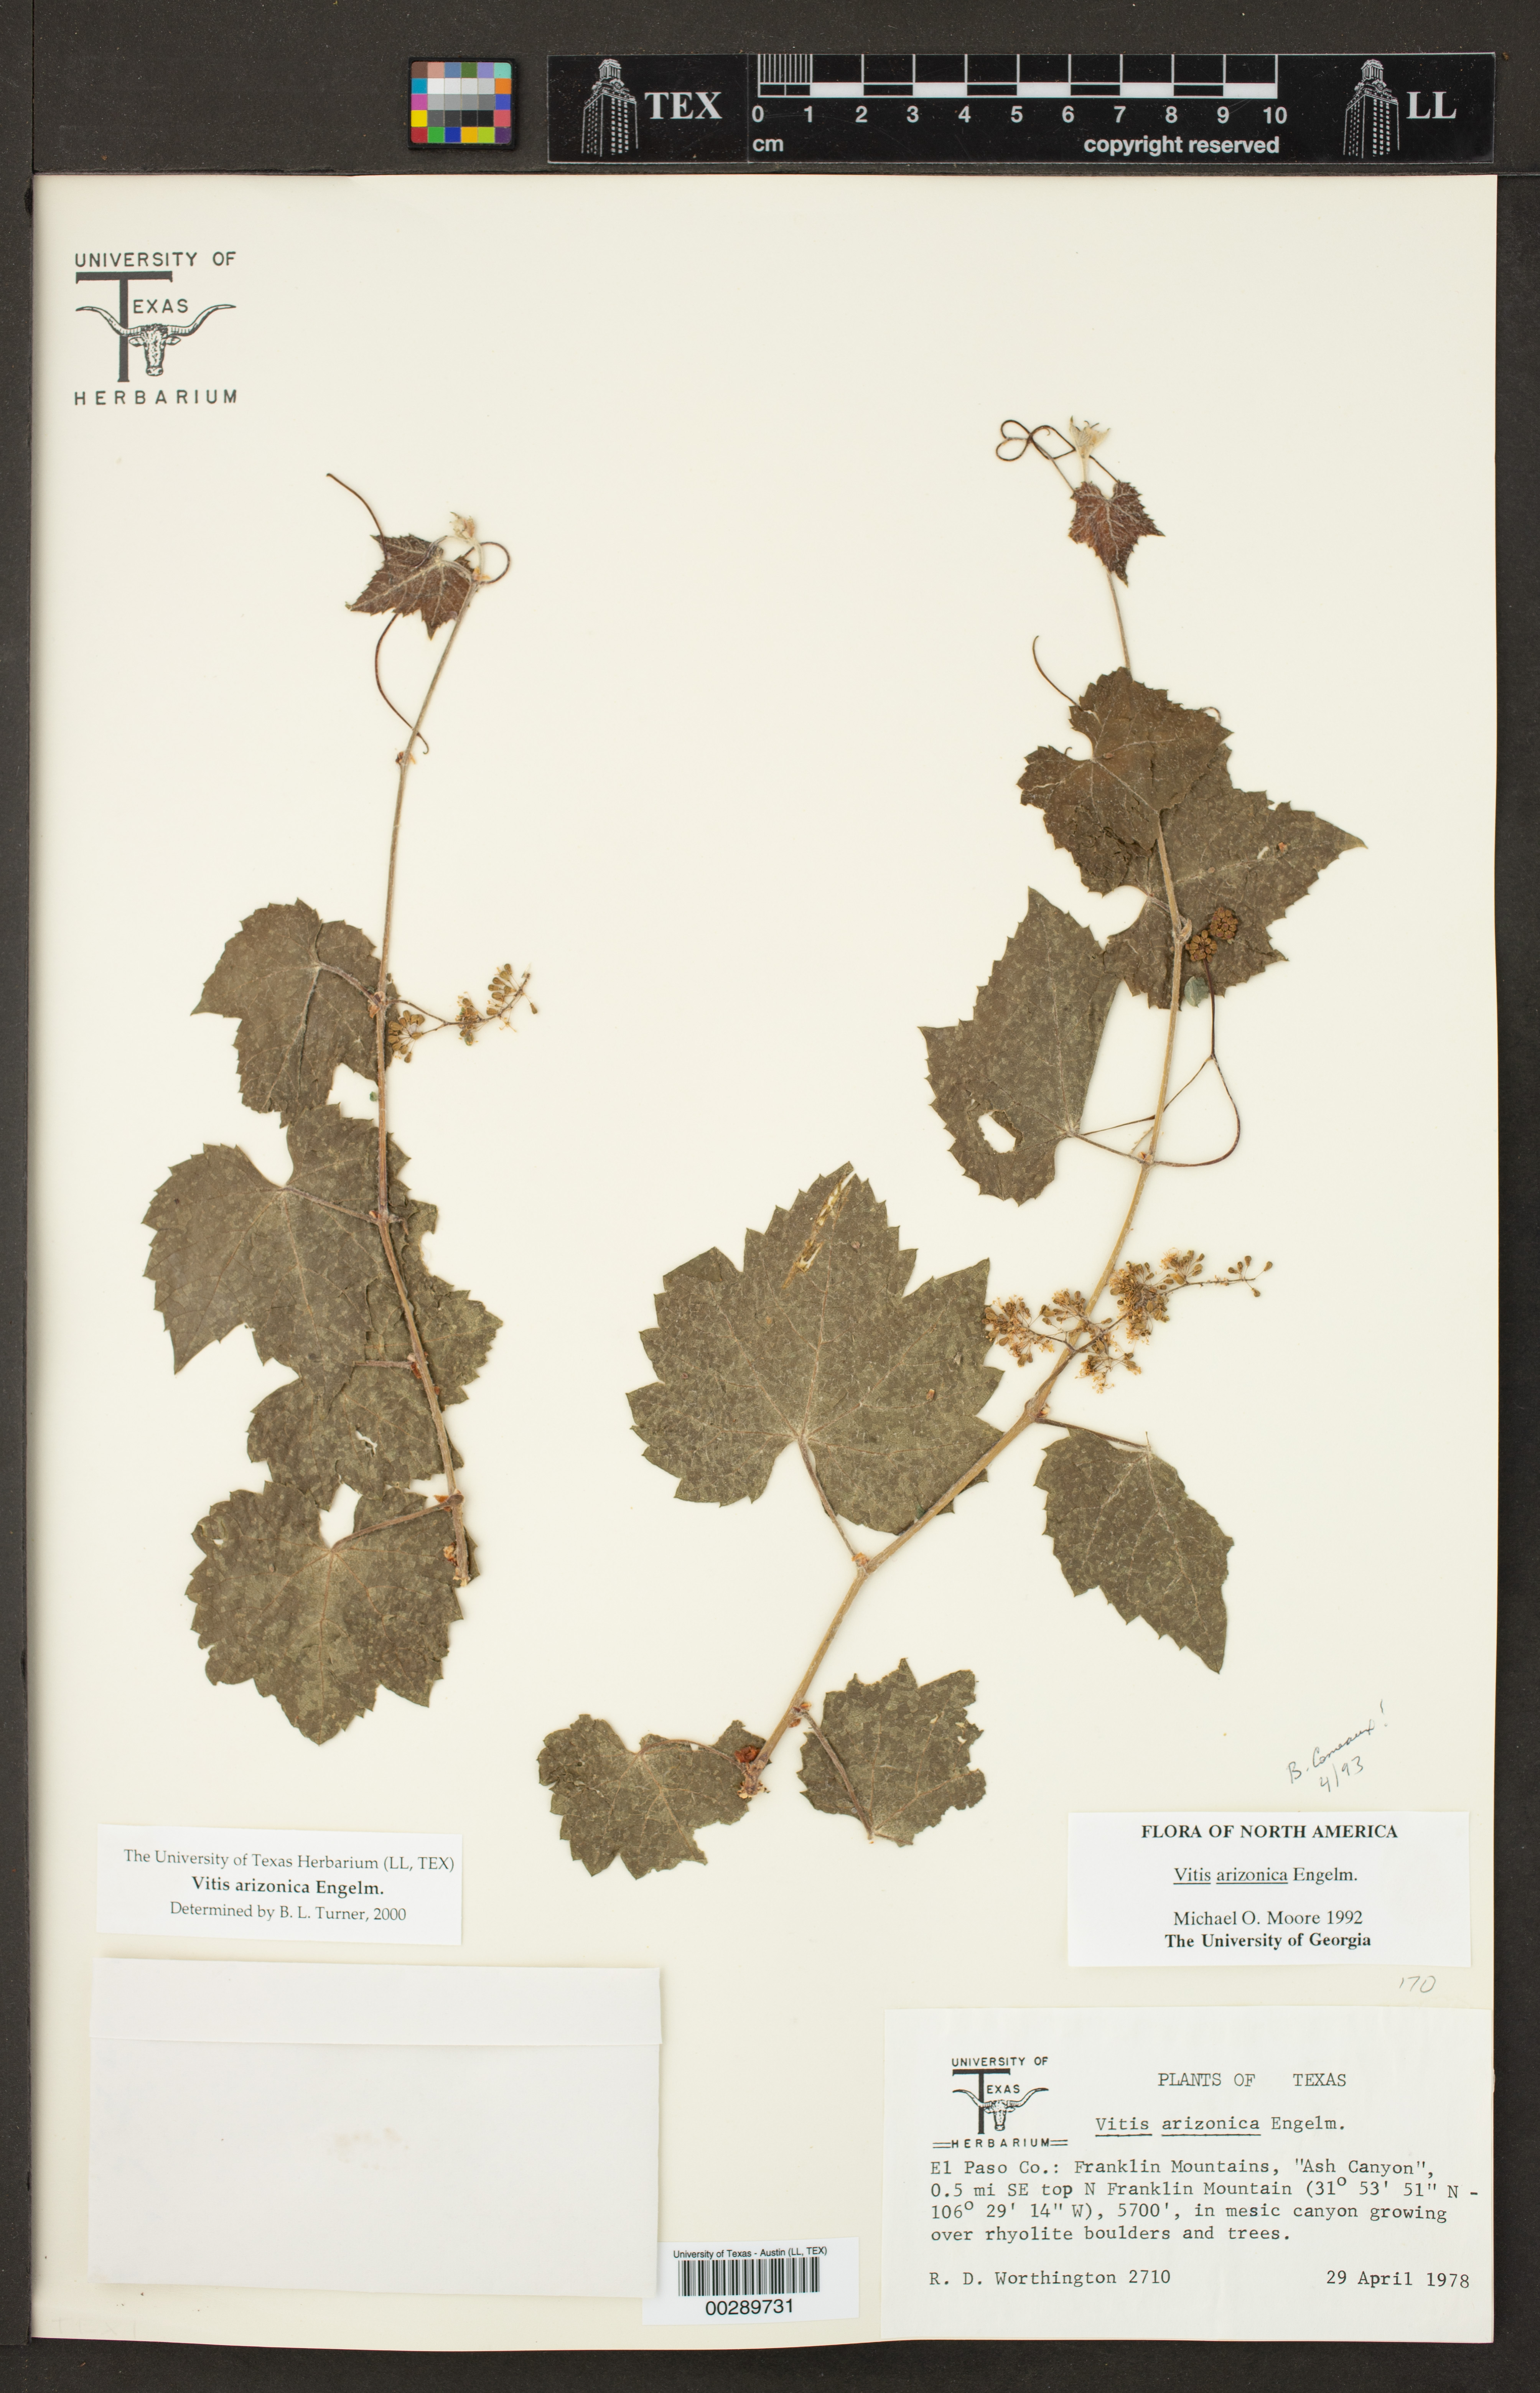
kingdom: Plantae
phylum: Tracheophyta
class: Magnoliopsida
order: Vitales
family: Vitaceae
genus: Vitis
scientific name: Vitis arizonica
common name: Canyon grape
